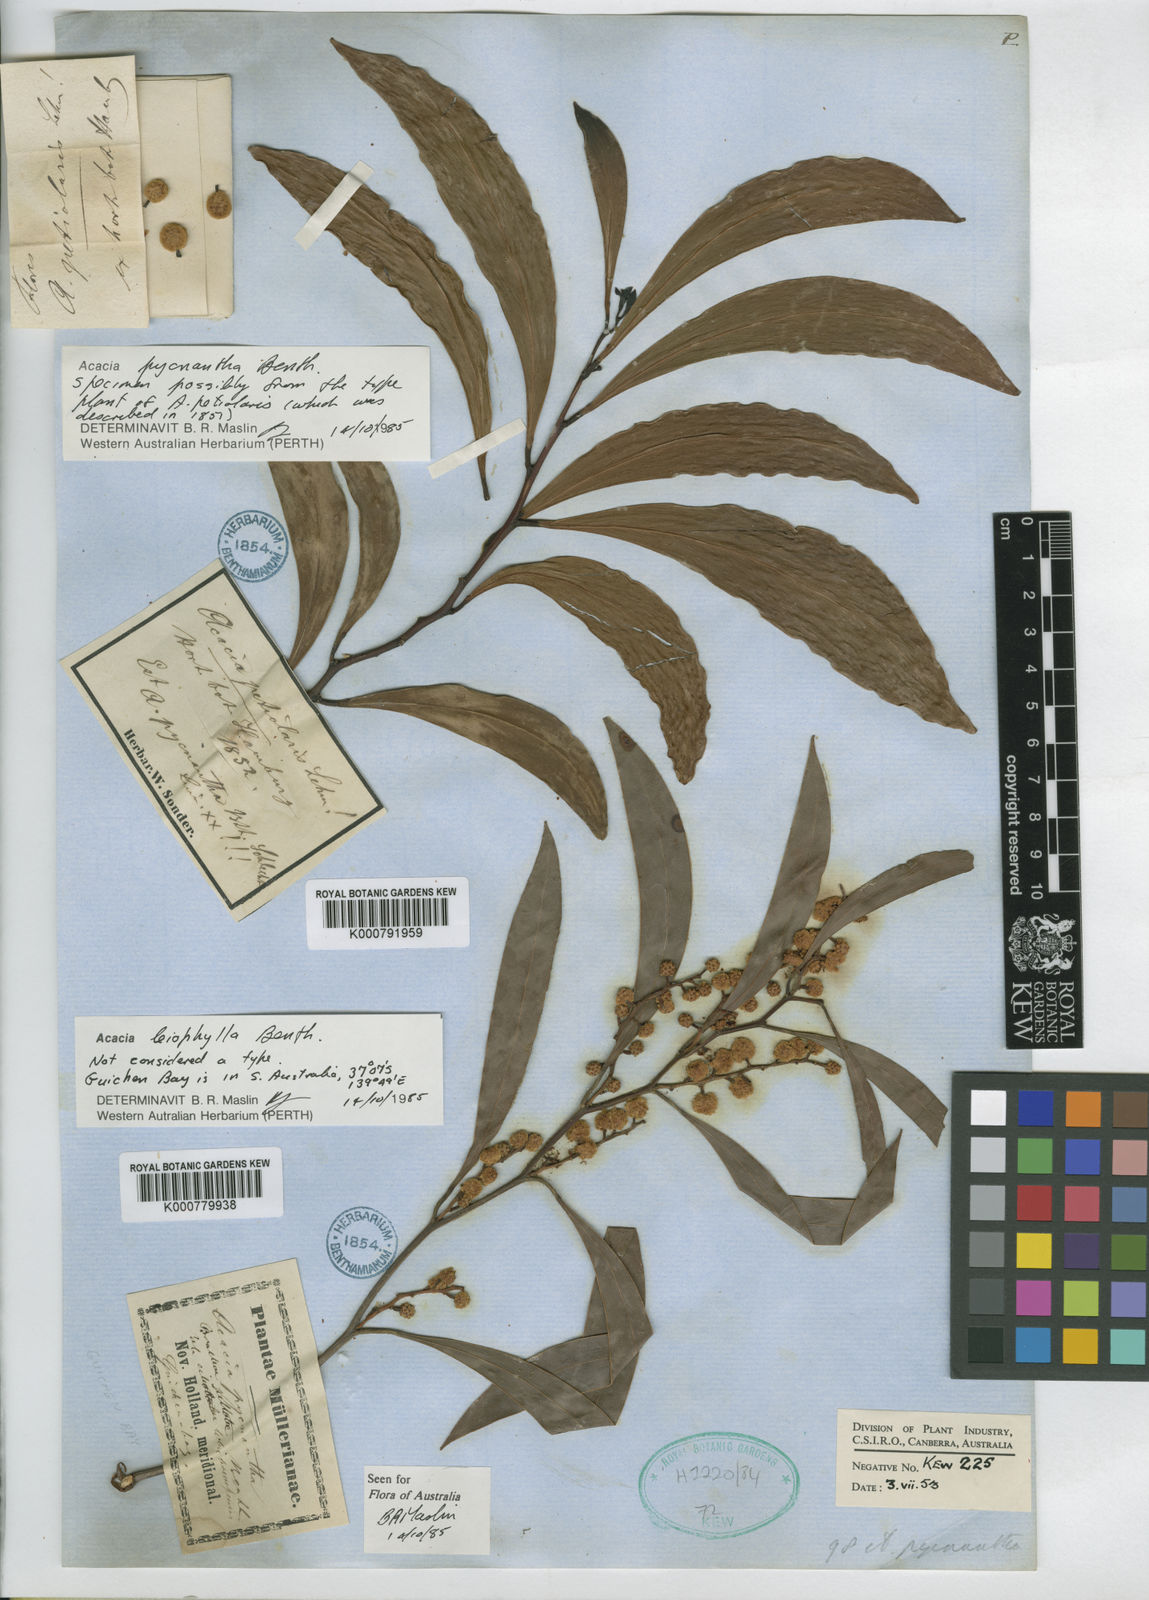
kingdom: Plantae
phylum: Tracheophyta
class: Magnoliopsida
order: Fabales
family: Fabaceae
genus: Acacia
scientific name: Acacia pycnantha
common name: Golden wattle
